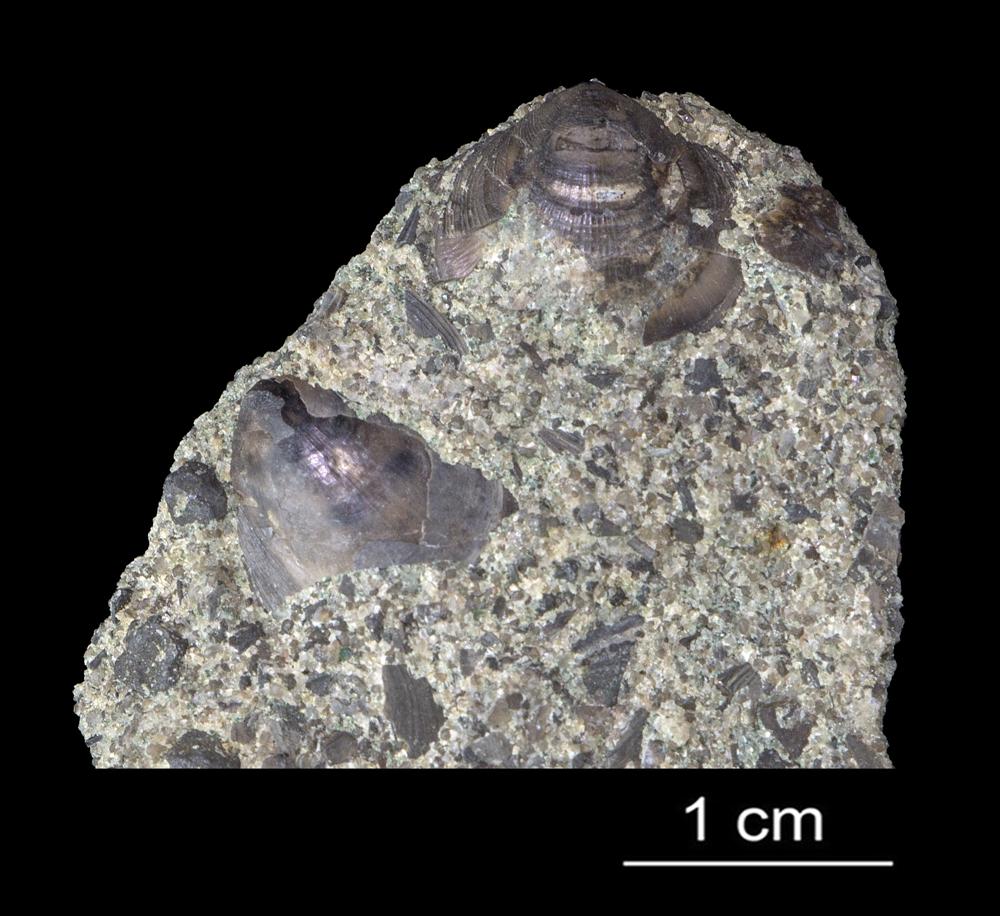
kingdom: Animalia
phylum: Brachiopoda
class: Lingulata
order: Lingulida
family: Zhanatellidae
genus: Thysanotos
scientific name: Thysanotos
